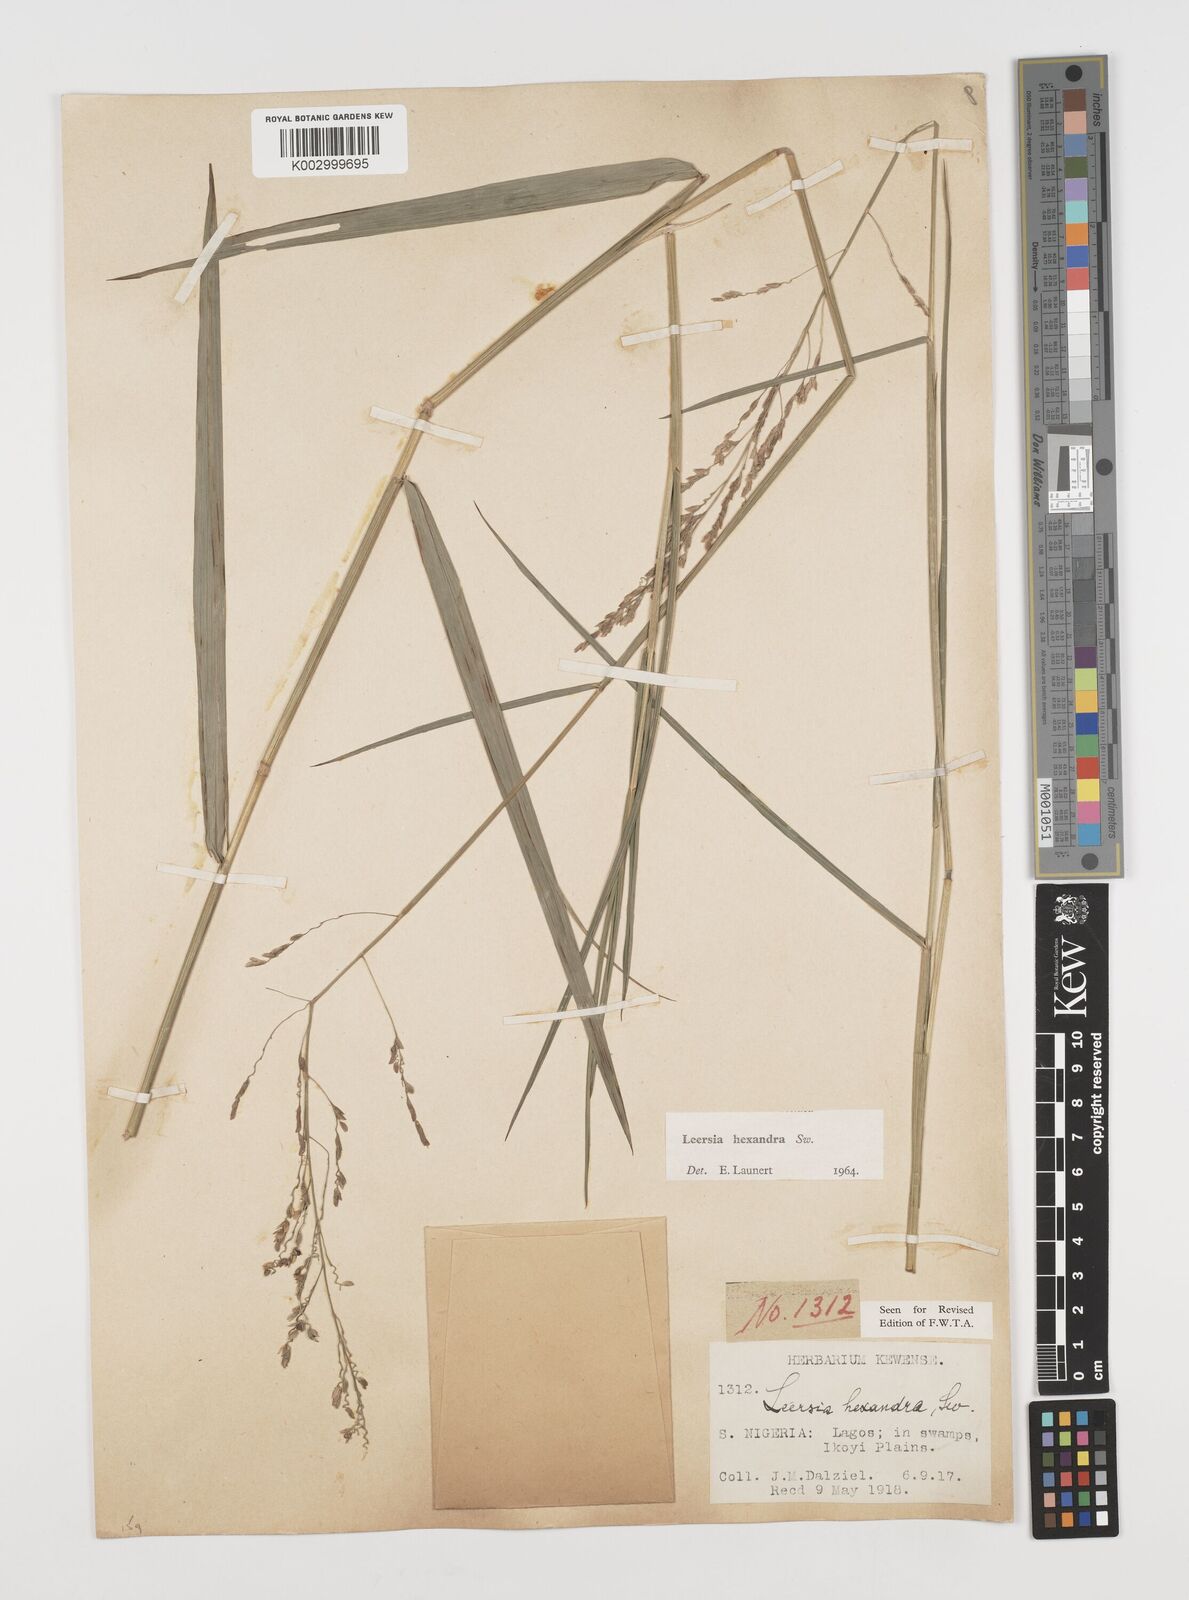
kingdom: Plantae
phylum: Tracheophyta
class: Liliopsida
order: Poales
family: Poaceae
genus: Leersia
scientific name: Leersia hexandra
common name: Southern cut grass
